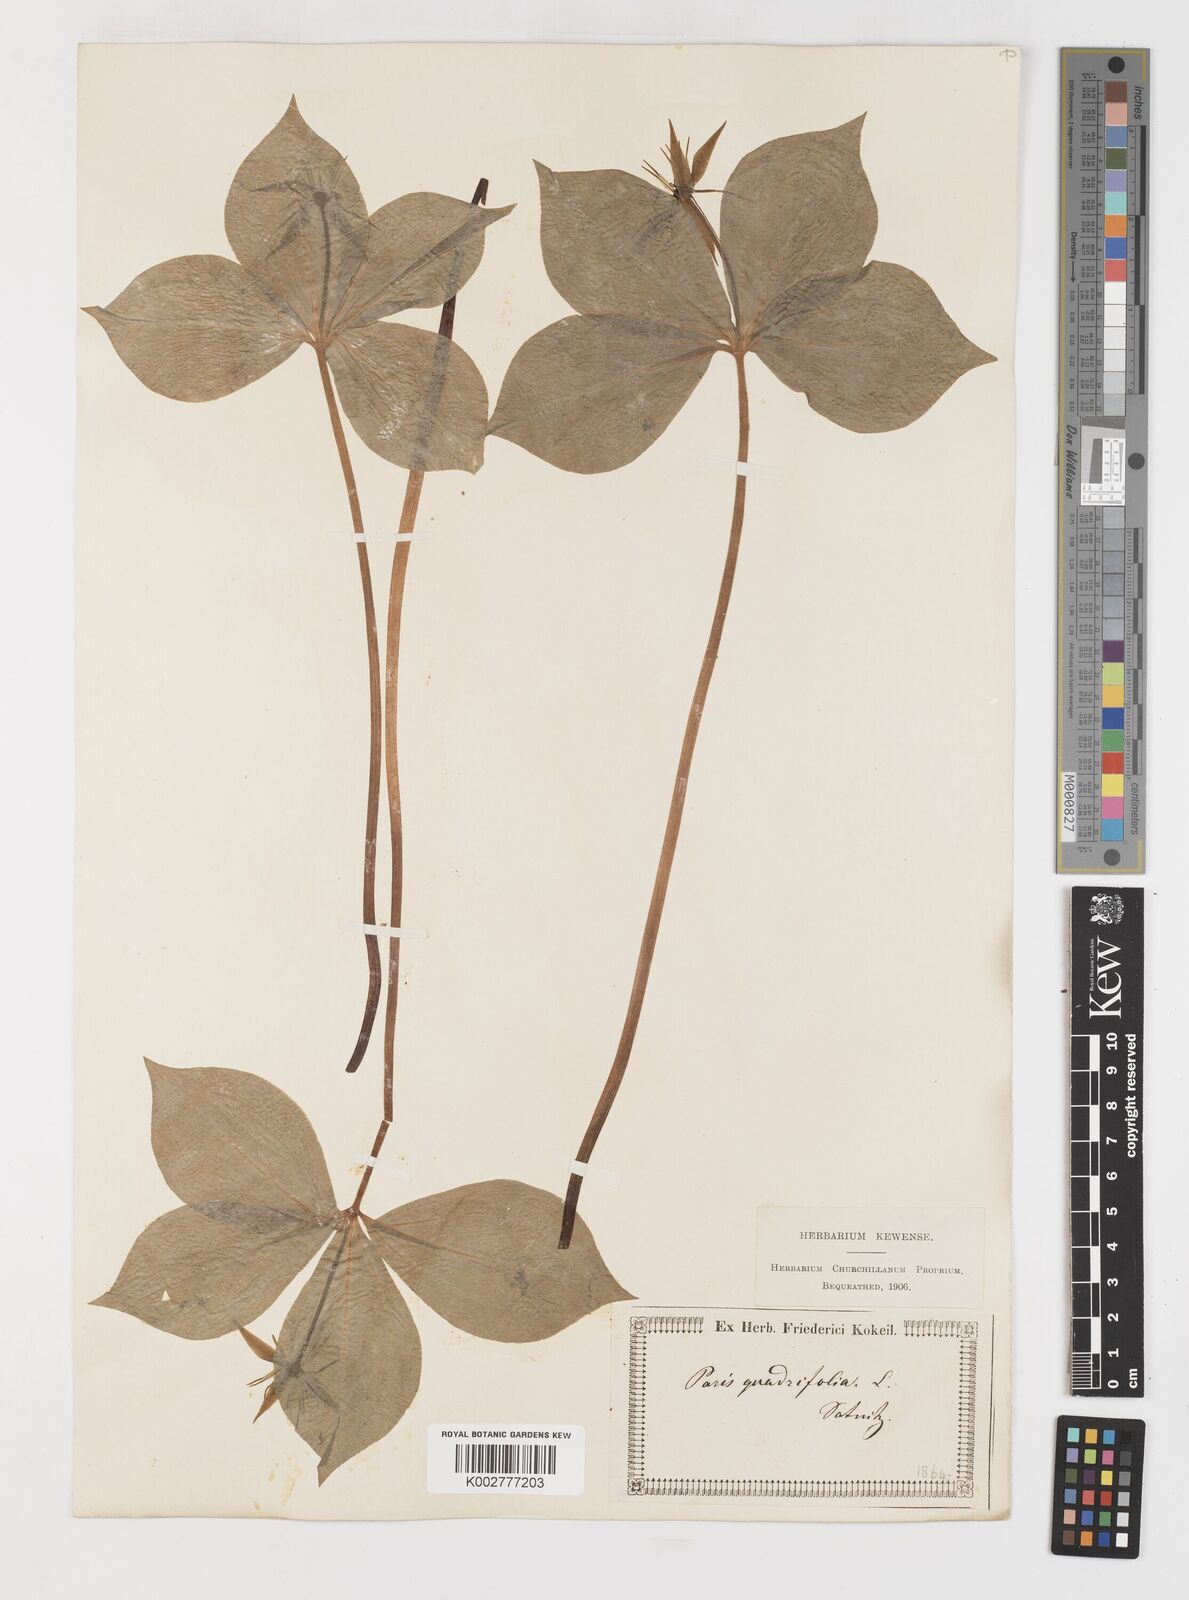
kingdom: Plantae
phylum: Tracheophyta
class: Liliopsida
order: Liliales
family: Melanthiaceae
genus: Paris
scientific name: Paris quadrifolia
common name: Herb-paris
